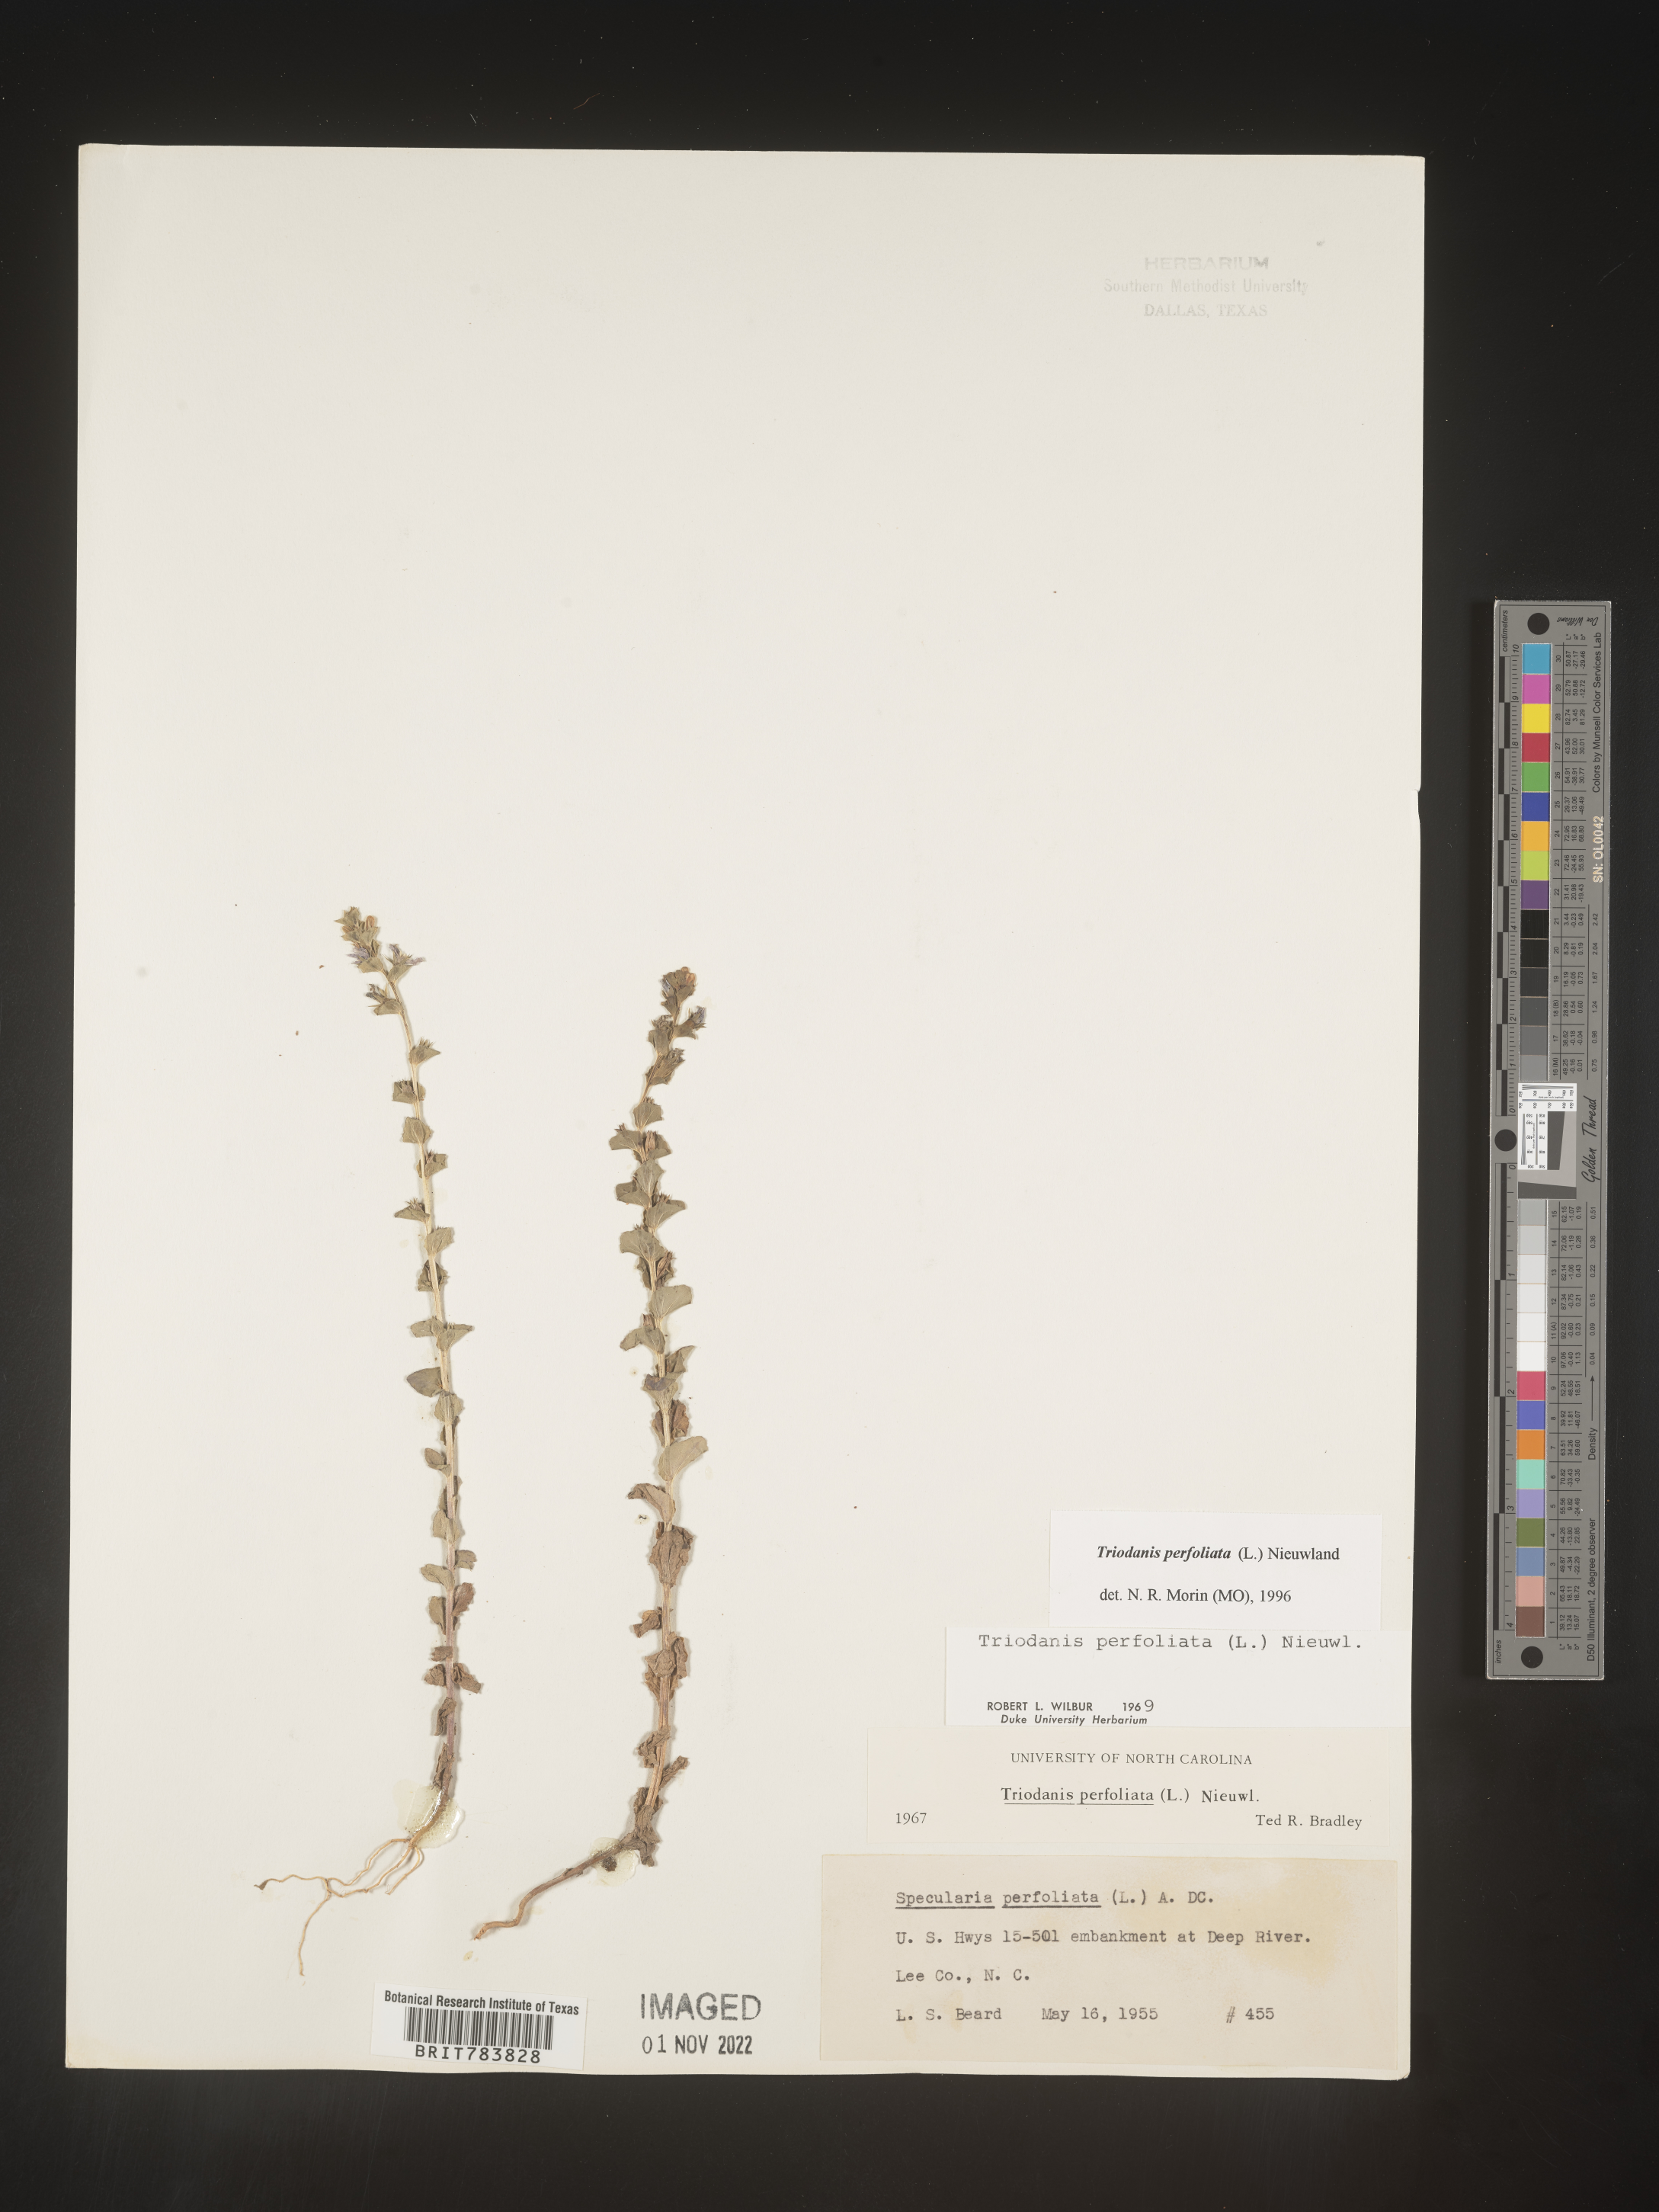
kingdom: Plantae
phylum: Tracheophyta
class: Magnoliopsida
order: Asterales
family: Campanulaceae
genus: Triodanis
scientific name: Triodanis perfoliata
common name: Clasping venus' looking-glass
